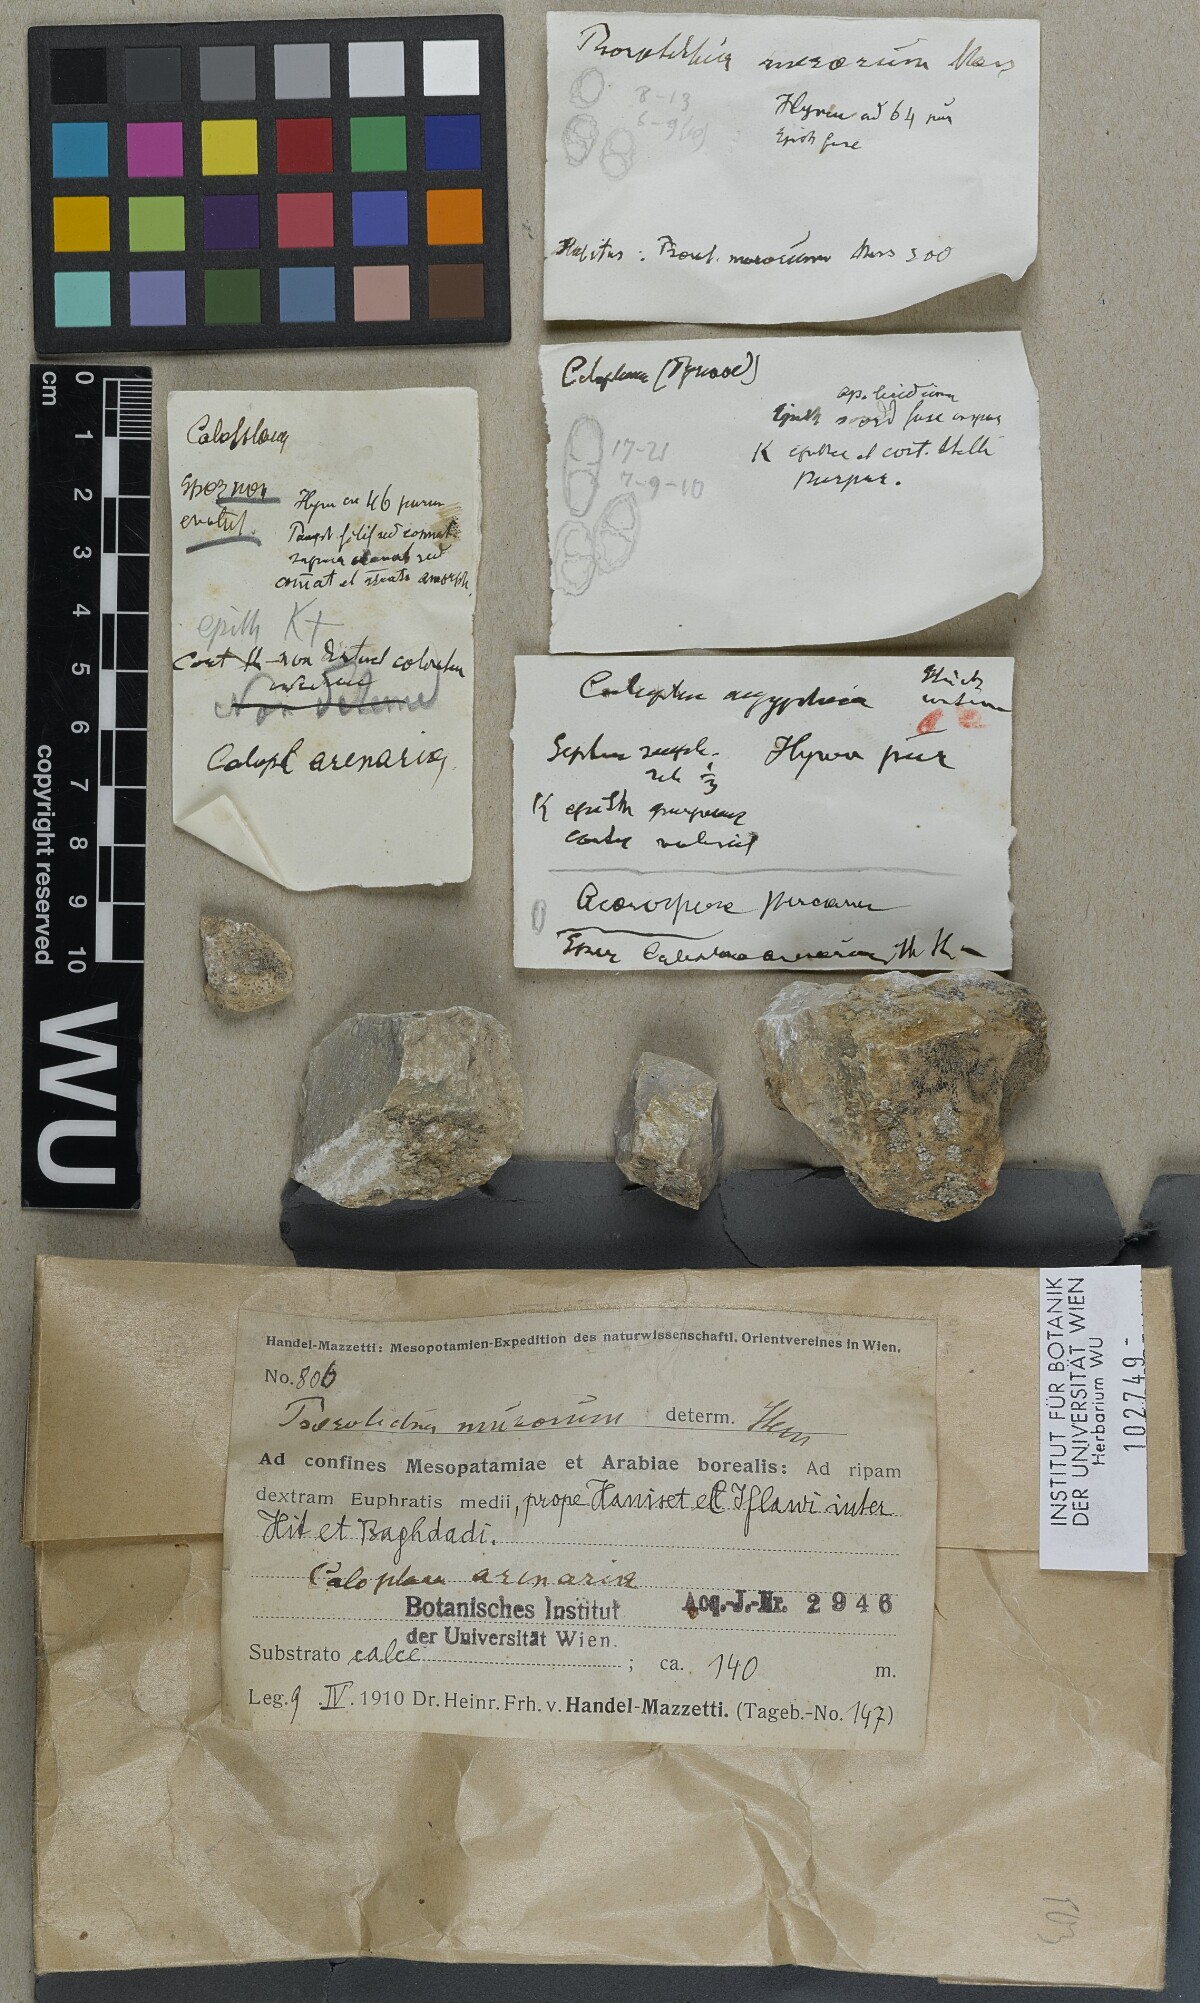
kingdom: Fungi
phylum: Ascomycota
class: Lichinomycetes
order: Lichinales
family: Lichinaceae
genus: Psorotichia
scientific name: Psorotichia murorum
